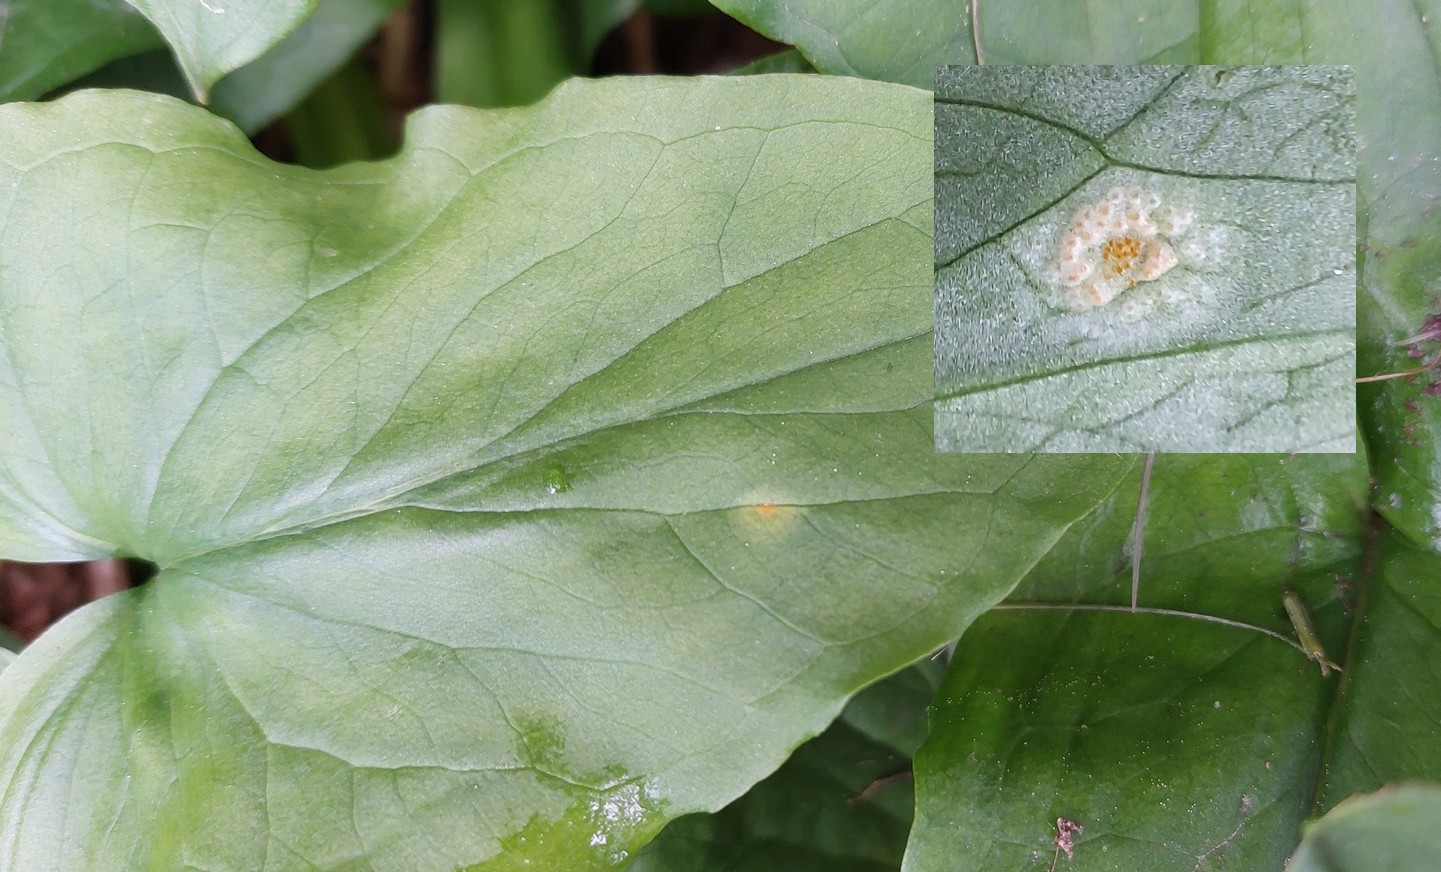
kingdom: Fungi
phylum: Basidiomycota
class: Pucciniomycetes
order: Pucciniales
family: Pucciniaceae
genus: Puccinia
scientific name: Puccinia sessilis
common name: Arum rust
